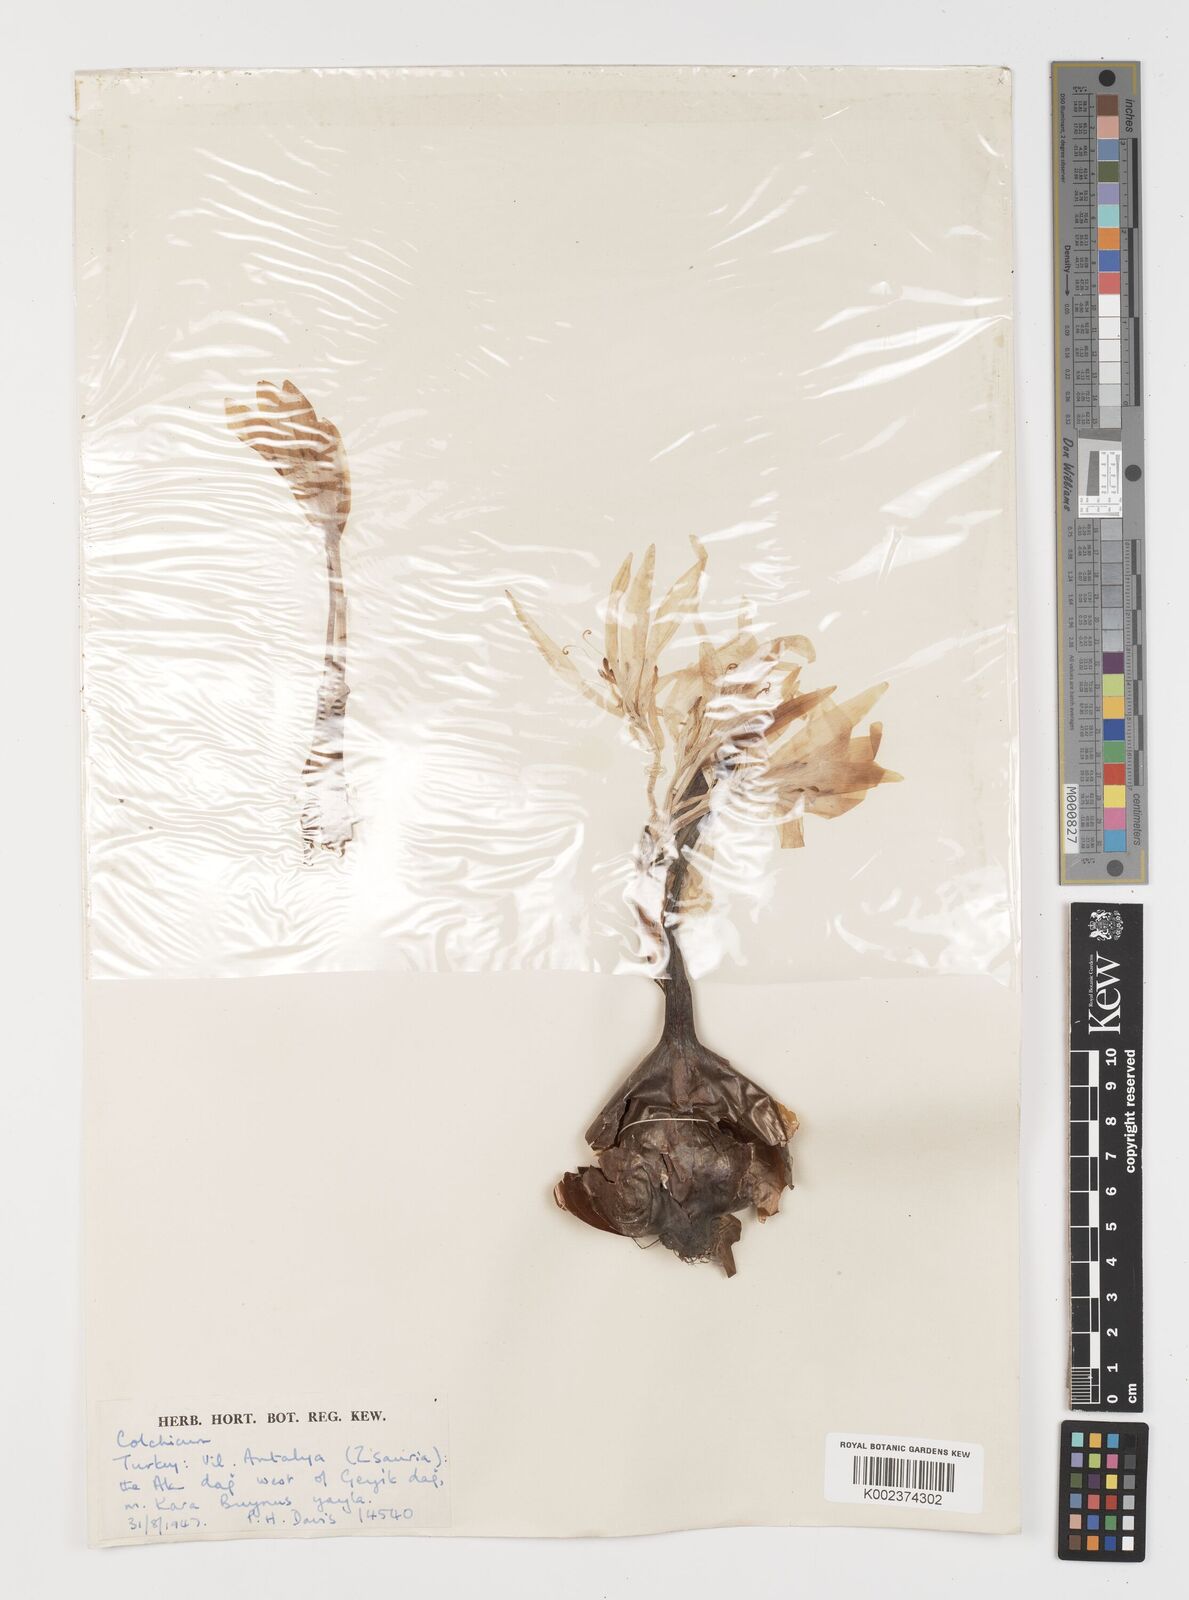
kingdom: Plantae
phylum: Tracheophyta
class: Liliopsida
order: Liliales
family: Colchicaceae
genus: Colchicum
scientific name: Colchicum
